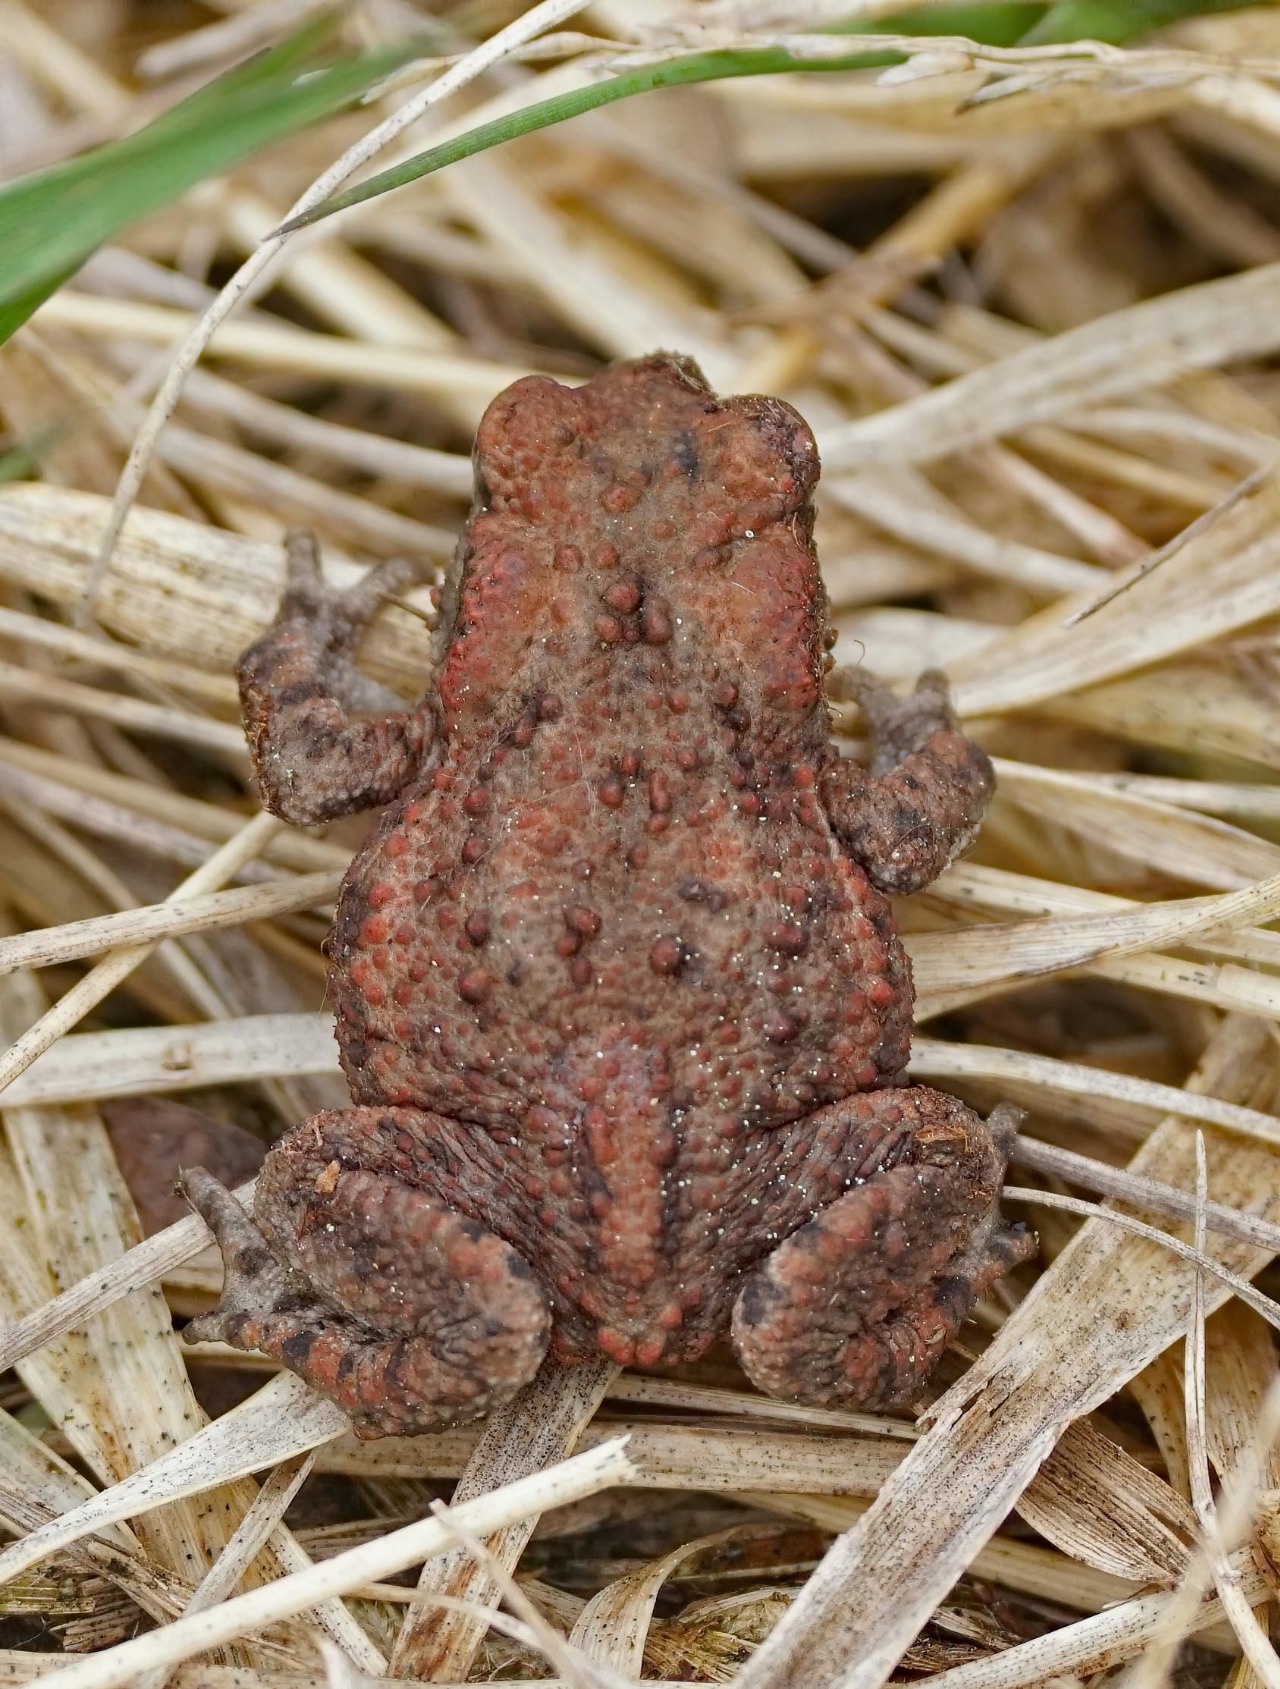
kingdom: Animalia
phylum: Chordata
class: Amphibia
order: Anura
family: Bufonidae
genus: Bufo
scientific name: Bufo bufo
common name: Skrubtudse
